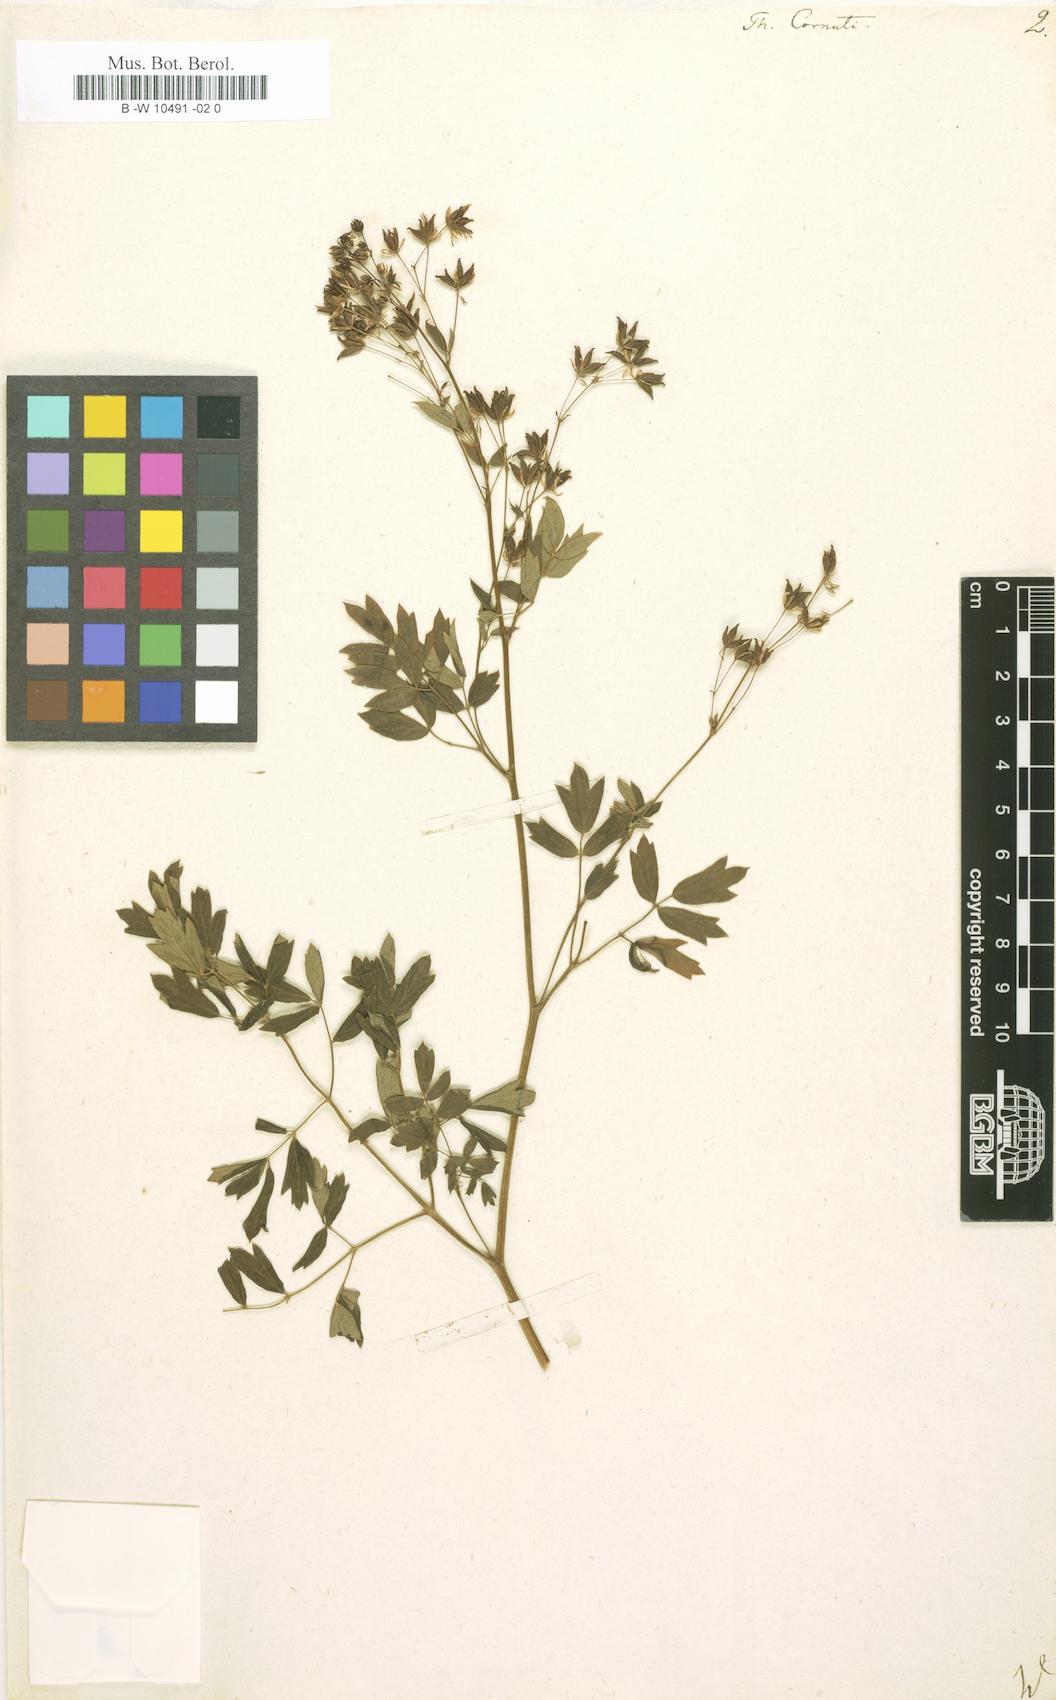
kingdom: Plantae
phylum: Tracheophyta
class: Magnoliopsida
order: Ranunculales
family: Ranunculaceae
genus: Thalictrum
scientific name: Thalictrum cornuti
